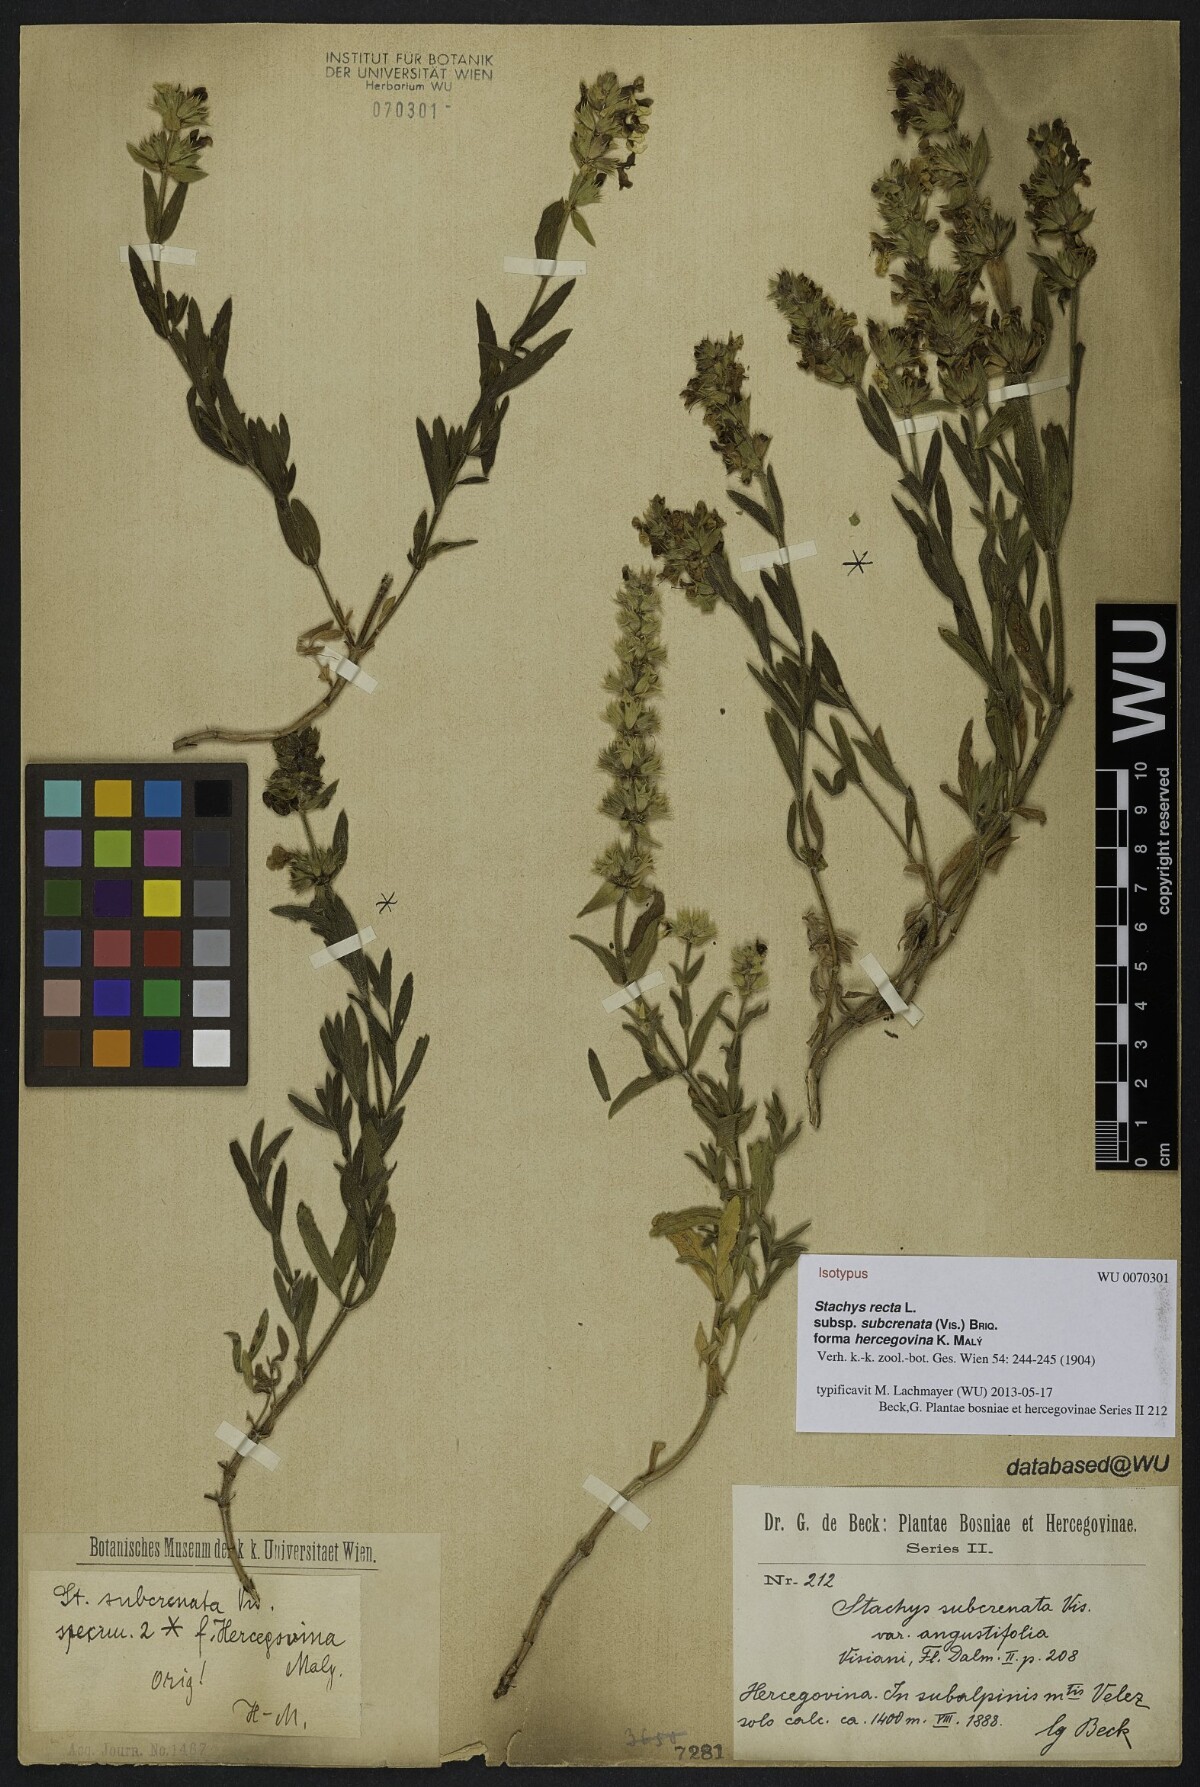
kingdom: Plantae
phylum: Tracheophyta
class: Magnoliopsida
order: Lamiales
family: Lamiaceae
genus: Stachys
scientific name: Stachys recta
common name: Perennial yellow-woundwort
